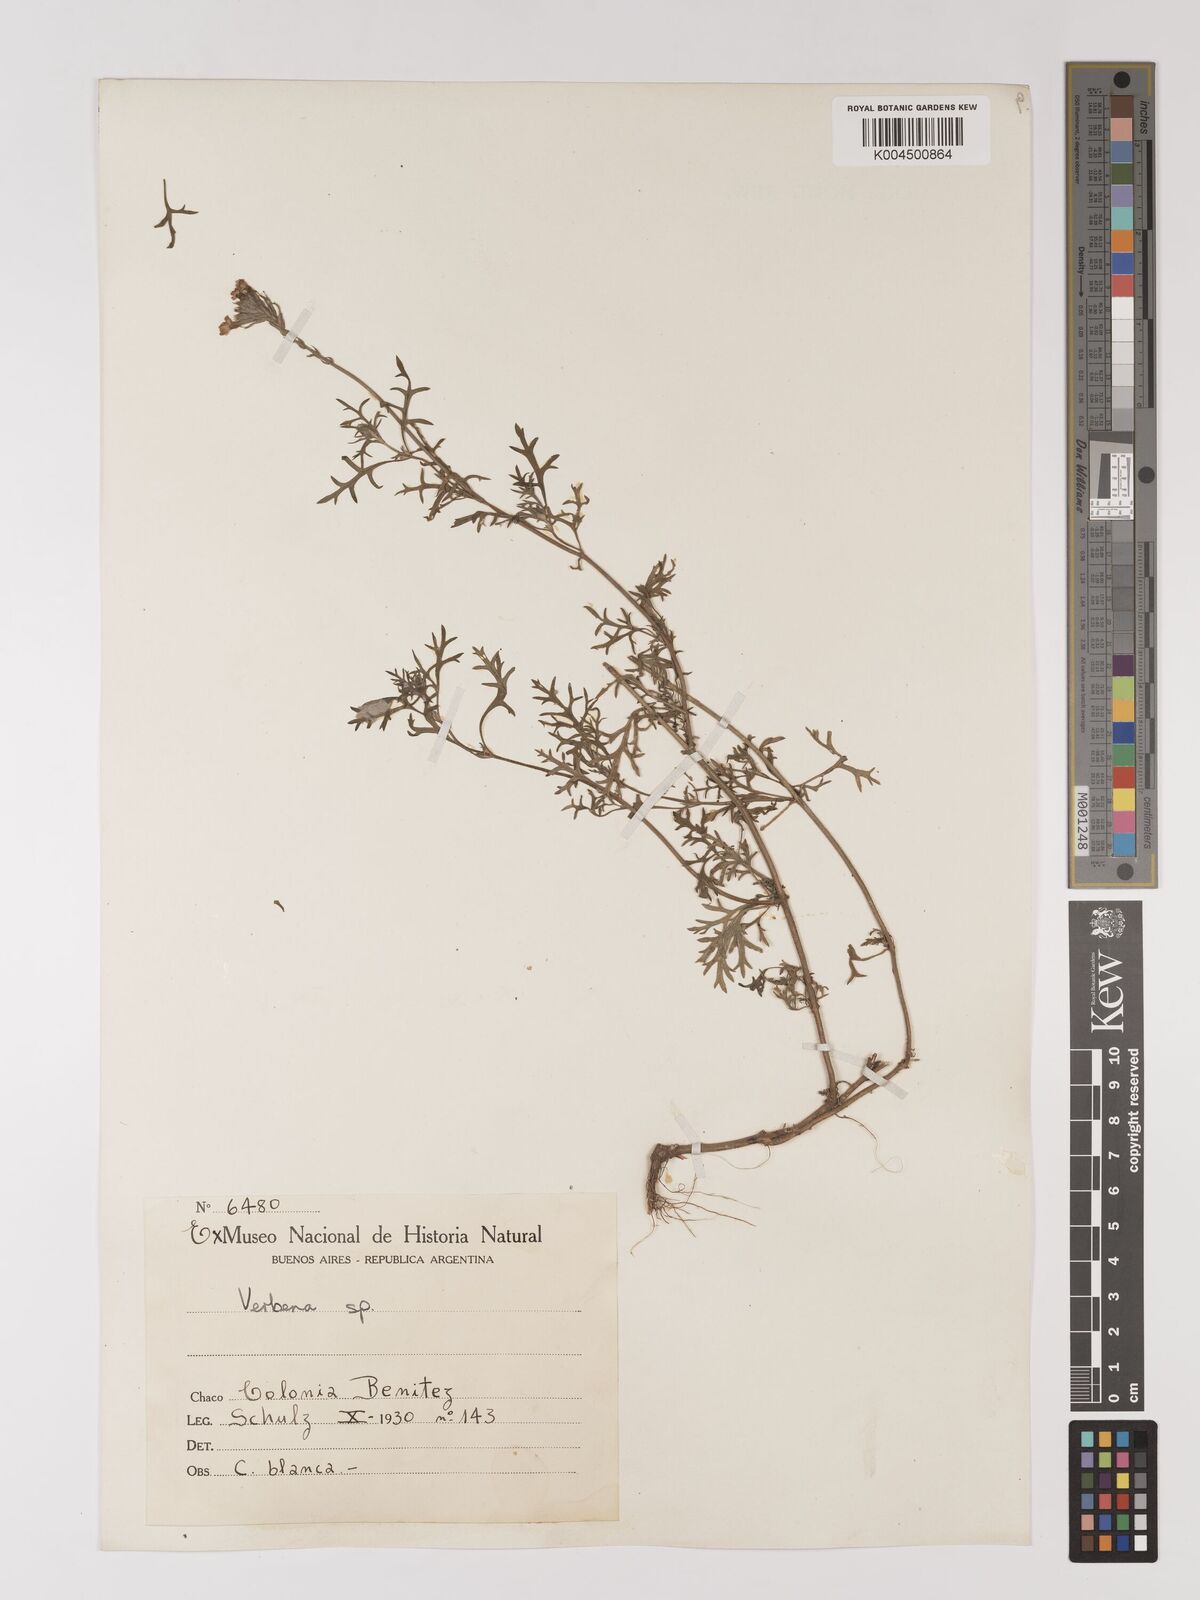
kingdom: Plantae
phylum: Tracheophyta
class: Magnoliopsida
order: Lamiales
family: Verbenaceae
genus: Verbena
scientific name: Verbena
